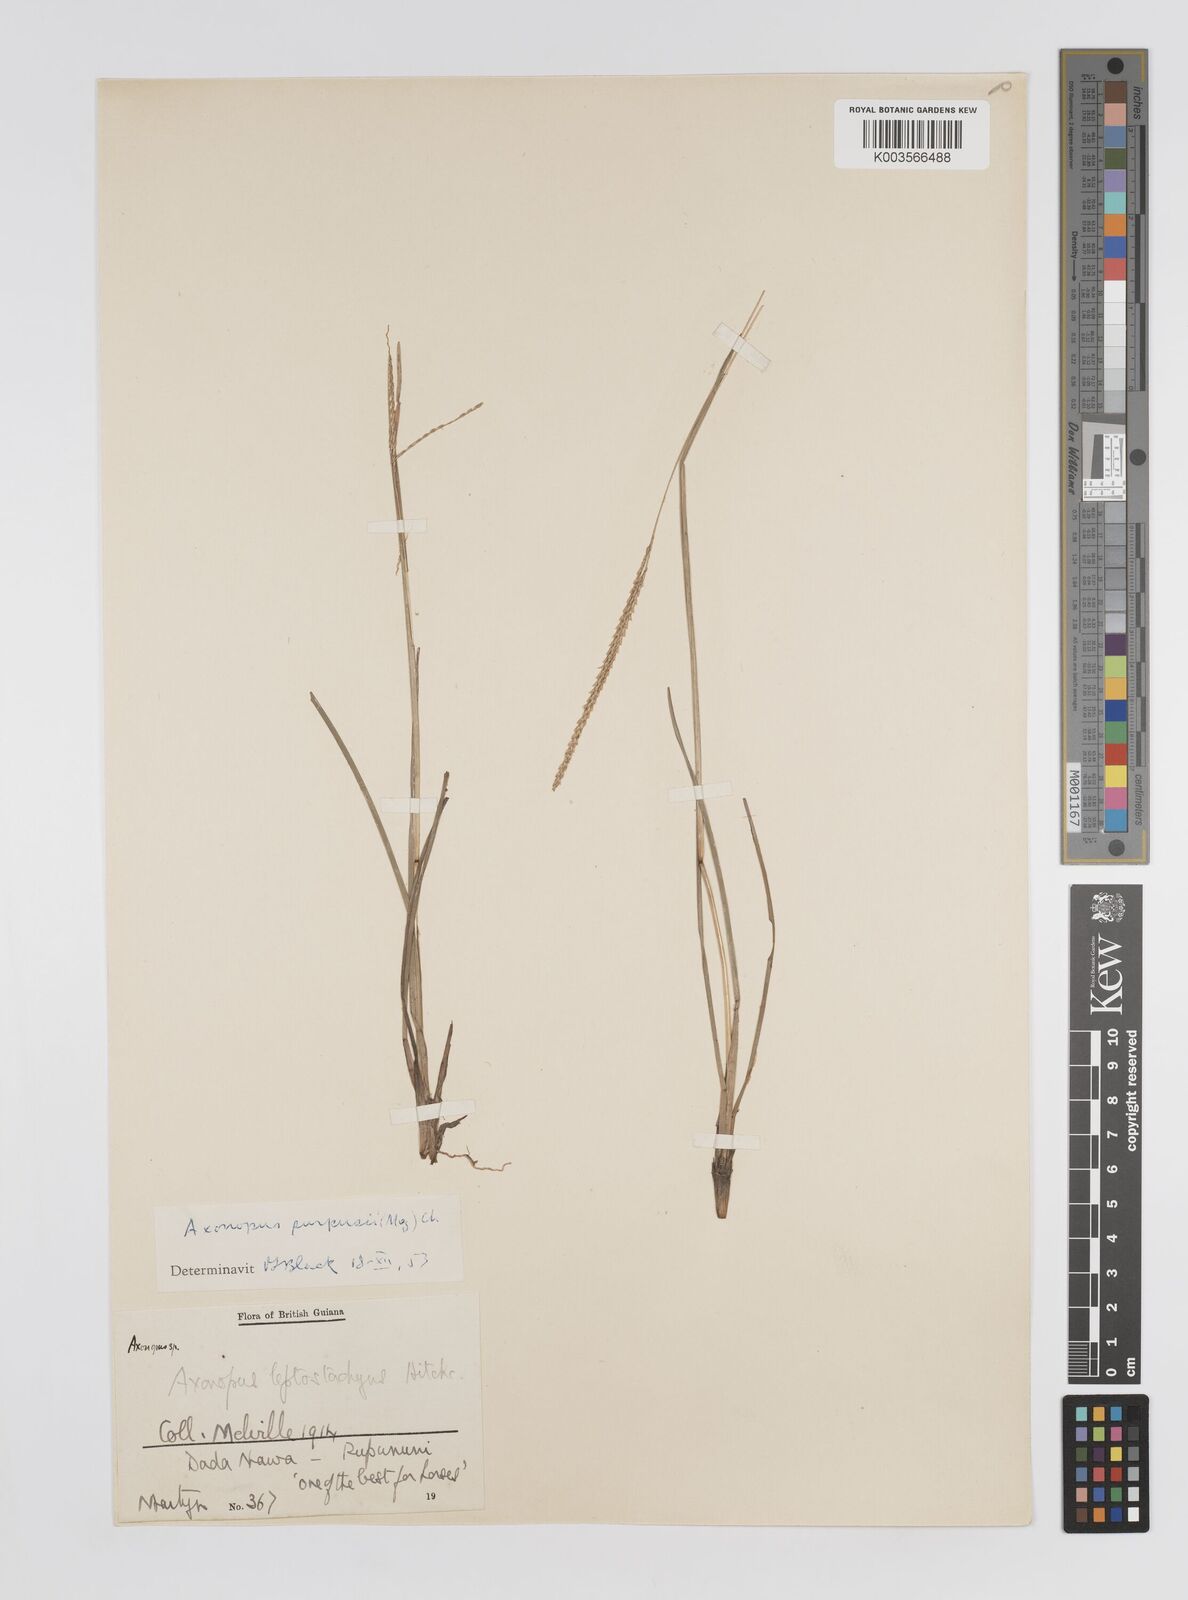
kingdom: Plantae
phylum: Tracheophyta
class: Liliopsida
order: Poales
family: Poaceae
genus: Axonopus
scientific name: Axonopus purpusii
